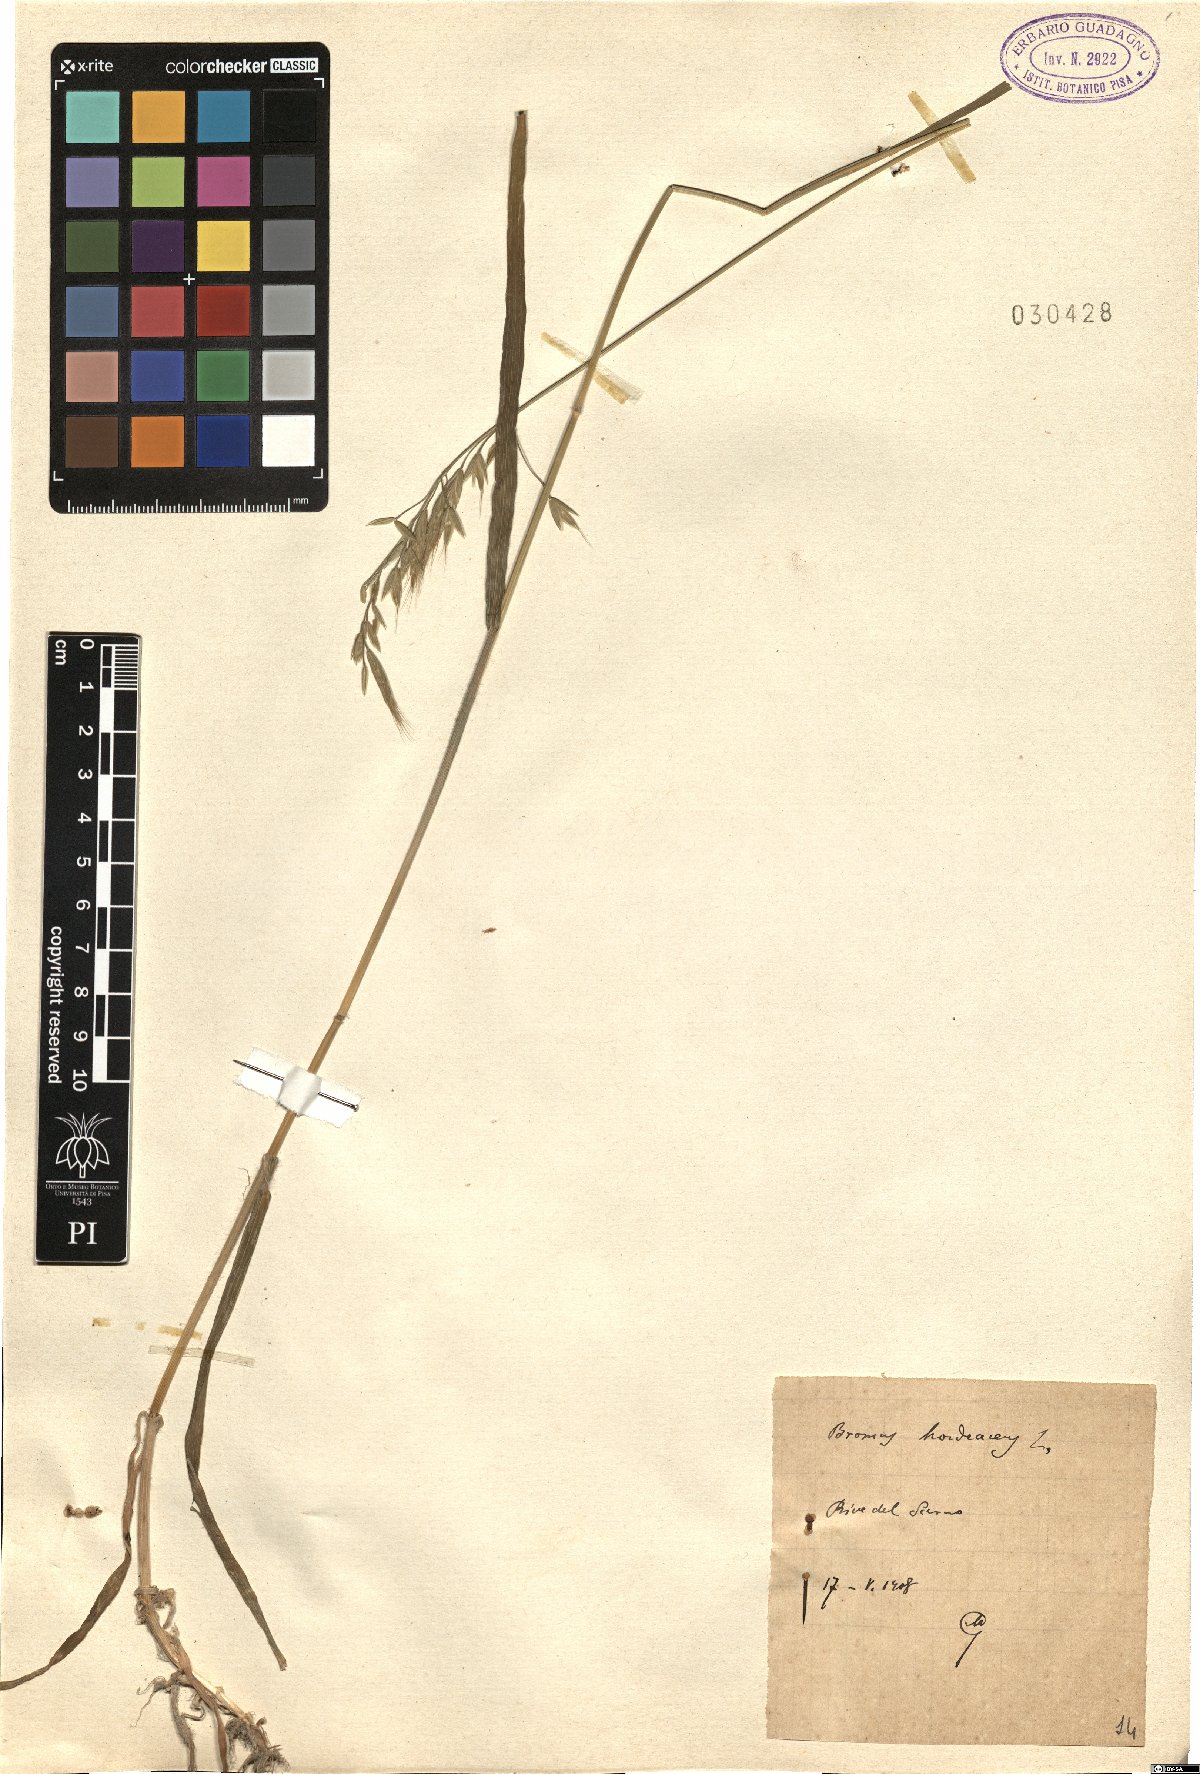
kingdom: Plantae
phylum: Tracheophyta
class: Liliopsida
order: Poales
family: Poaceae
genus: Bromus
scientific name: Bromus hordeaceus
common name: Soft brome
